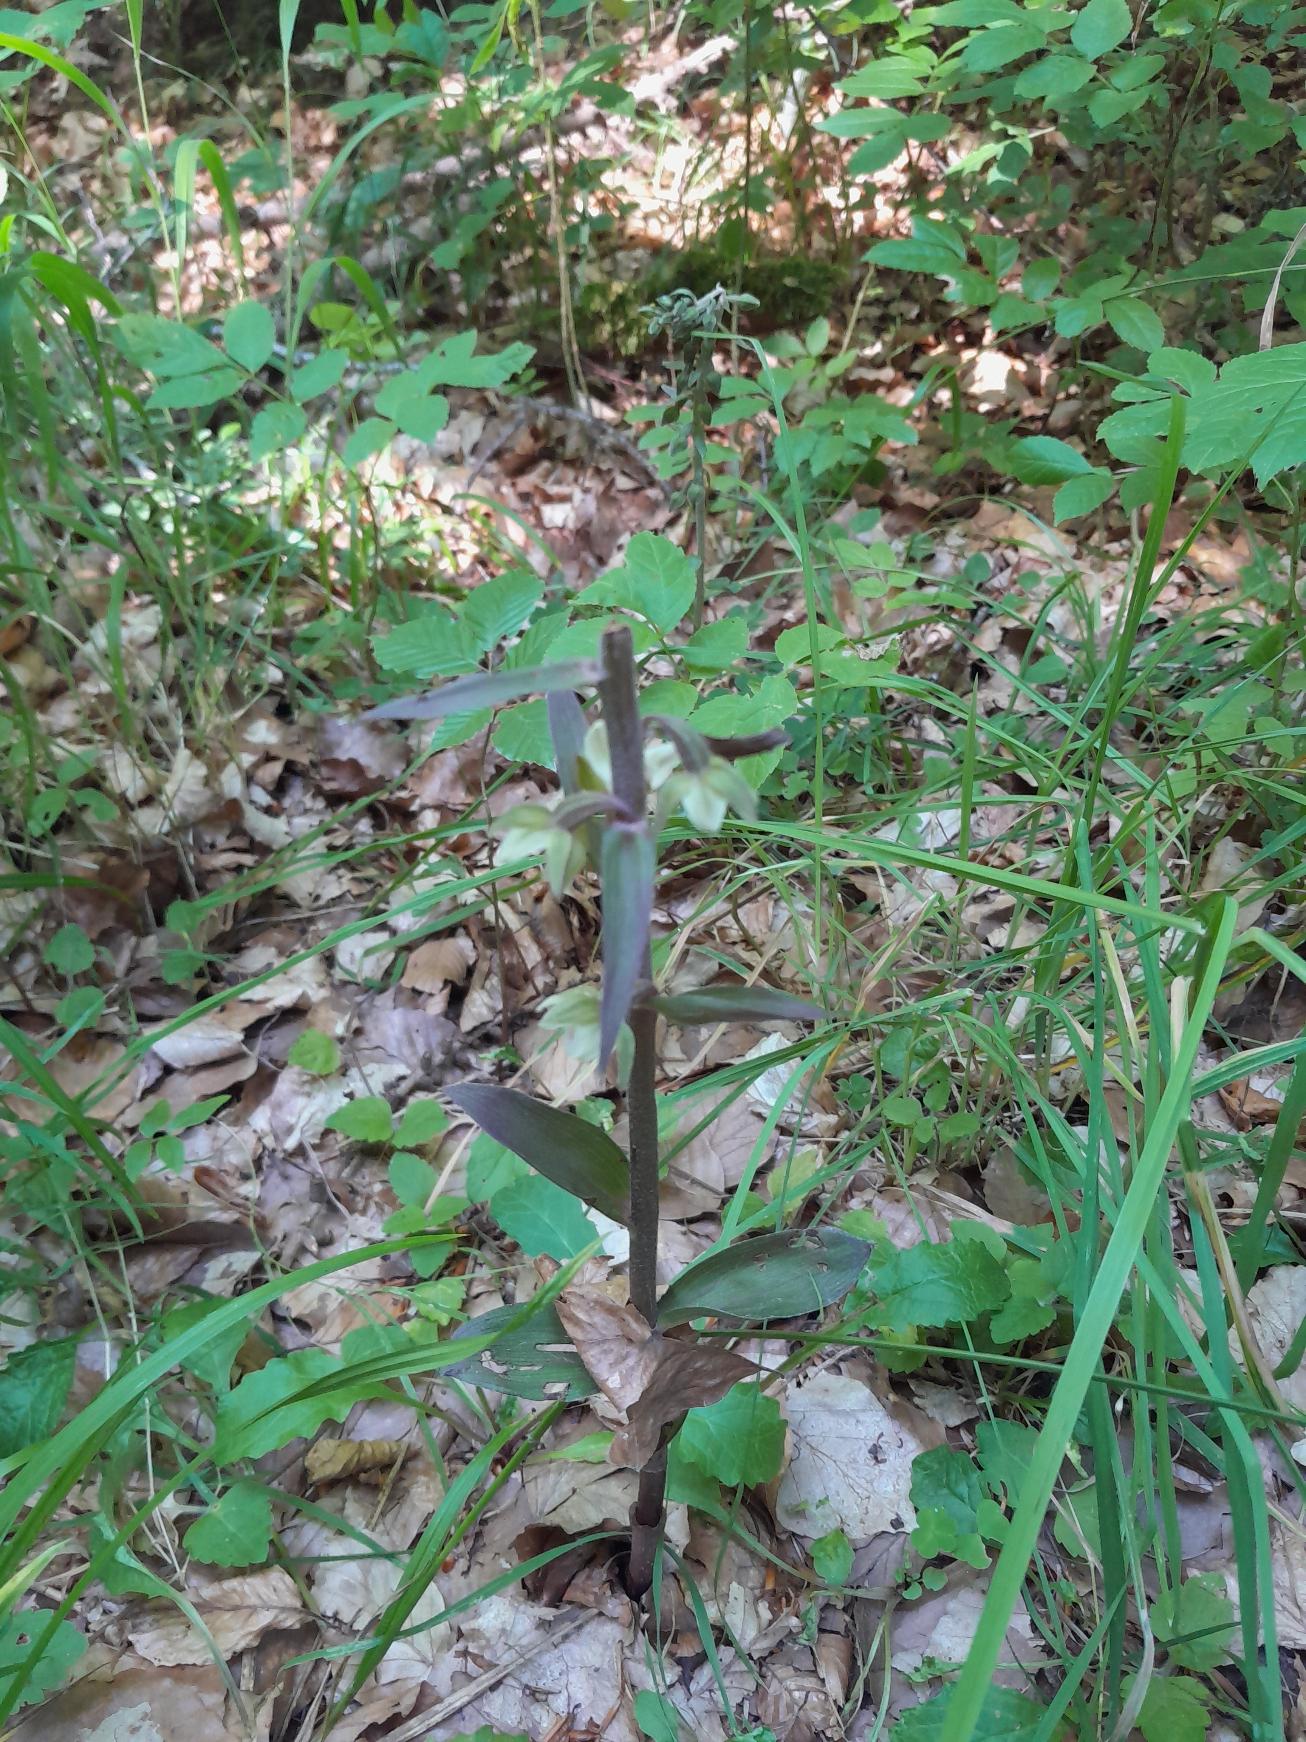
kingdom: Plantae
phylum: Tracheophyta
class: Liliopsida
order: Asparagales
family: Orchidaceae
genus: Epipactis
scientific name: Epipactis purpurata
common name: Tætblomstret hullæbe
